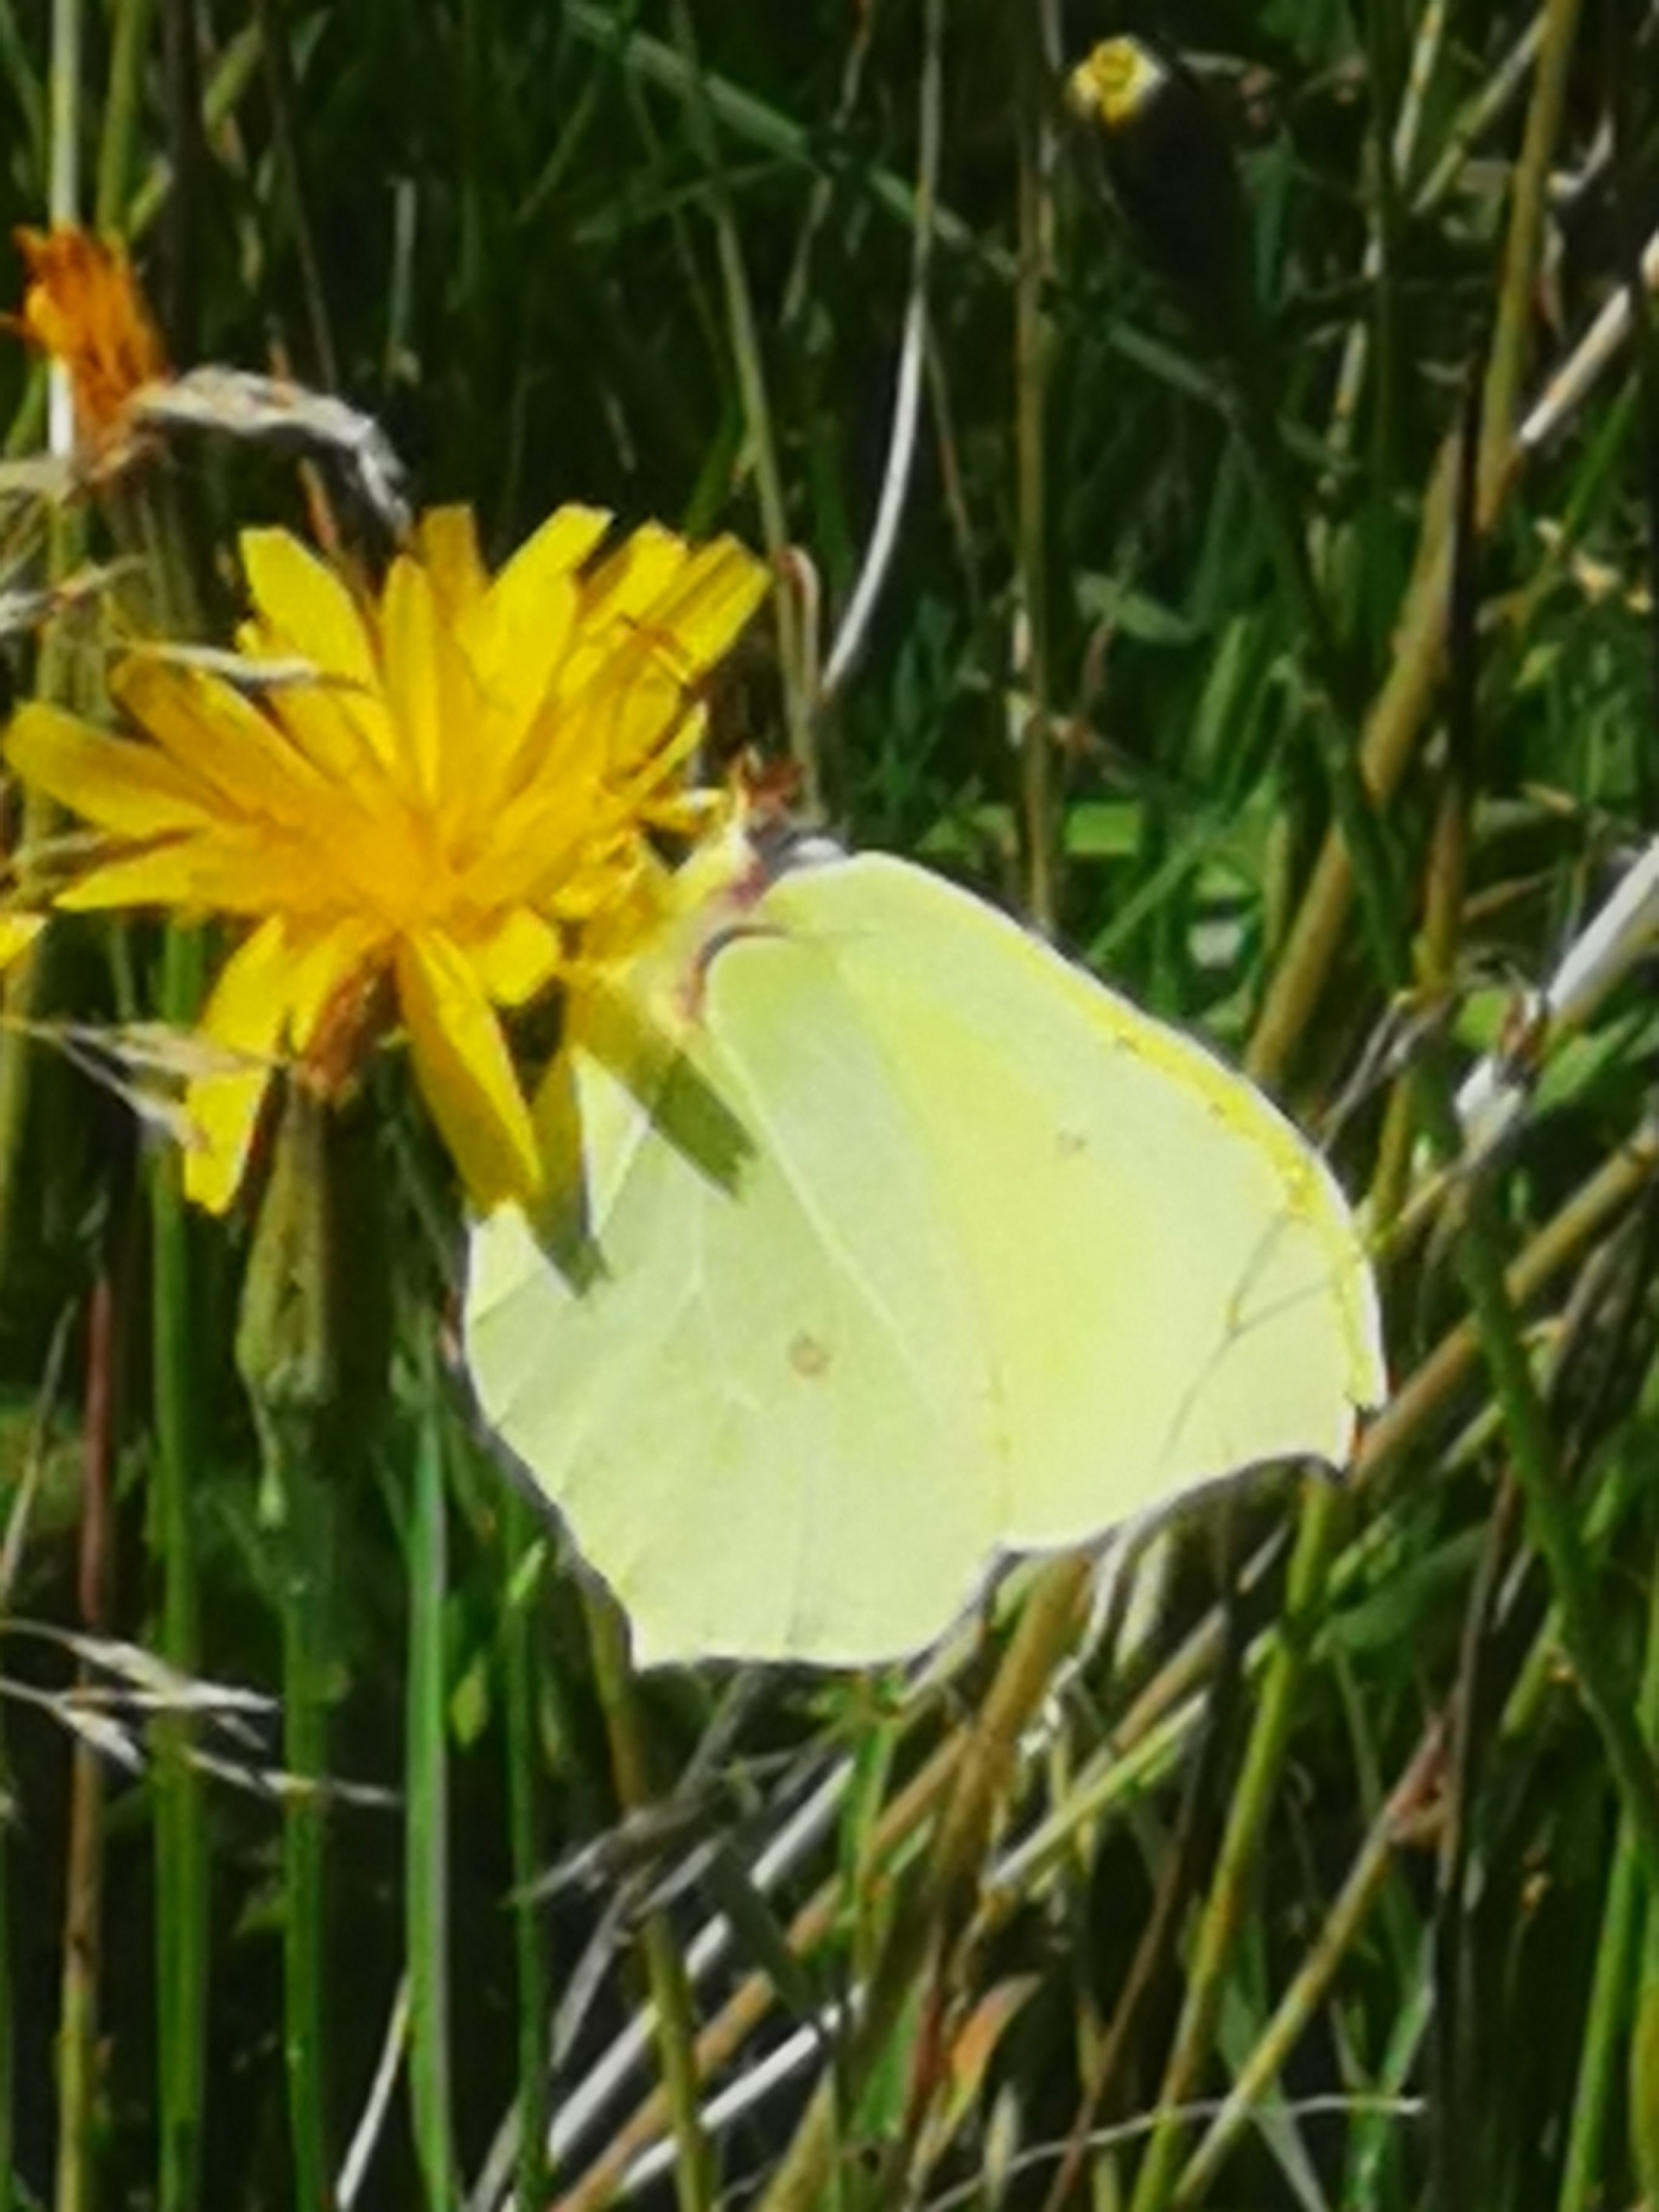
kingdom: Animalia
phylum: Arthropoda
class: Insecta
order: Lepidoptera
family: Pieridae
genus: Gonepteryx
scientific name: Gonepteryx rhamni
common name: Citronsommerfugl
